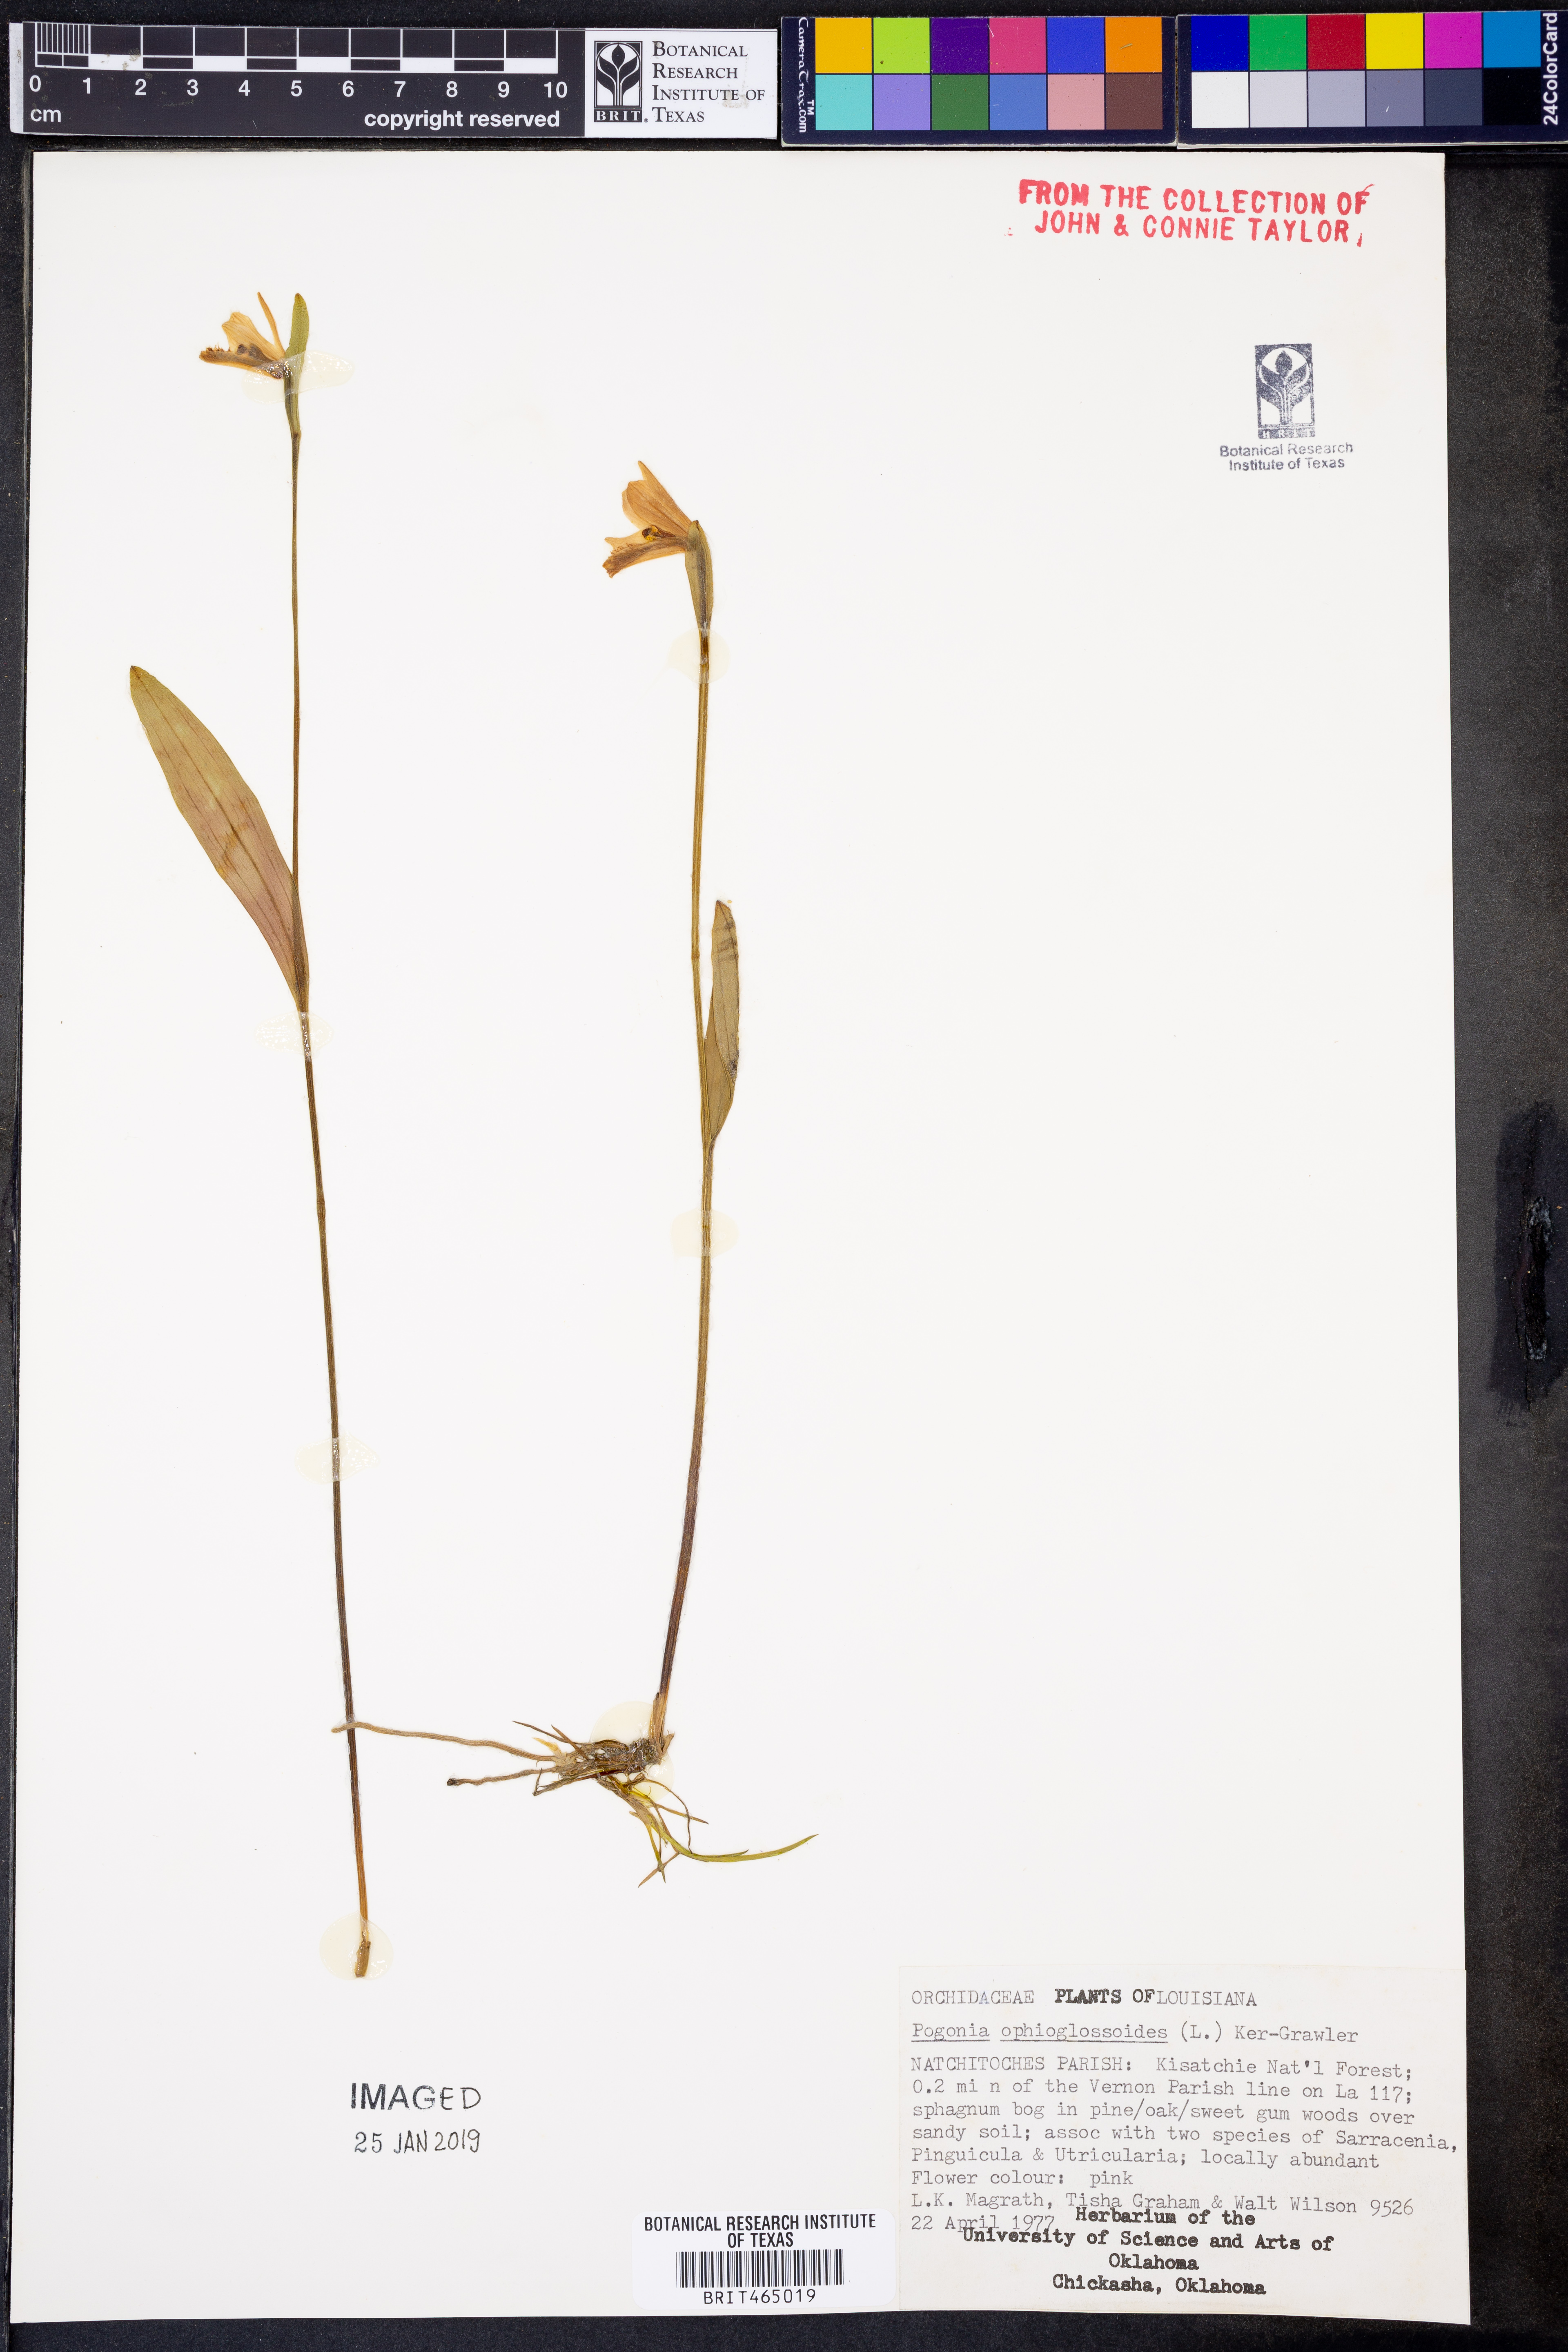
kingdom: Plantae
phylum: Tracheophyta
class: Liliopsida
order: Asparagales
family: Orchidaceae
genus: Pogonia
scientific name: Pogonia ophioglossoides
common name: Rose pogonia
